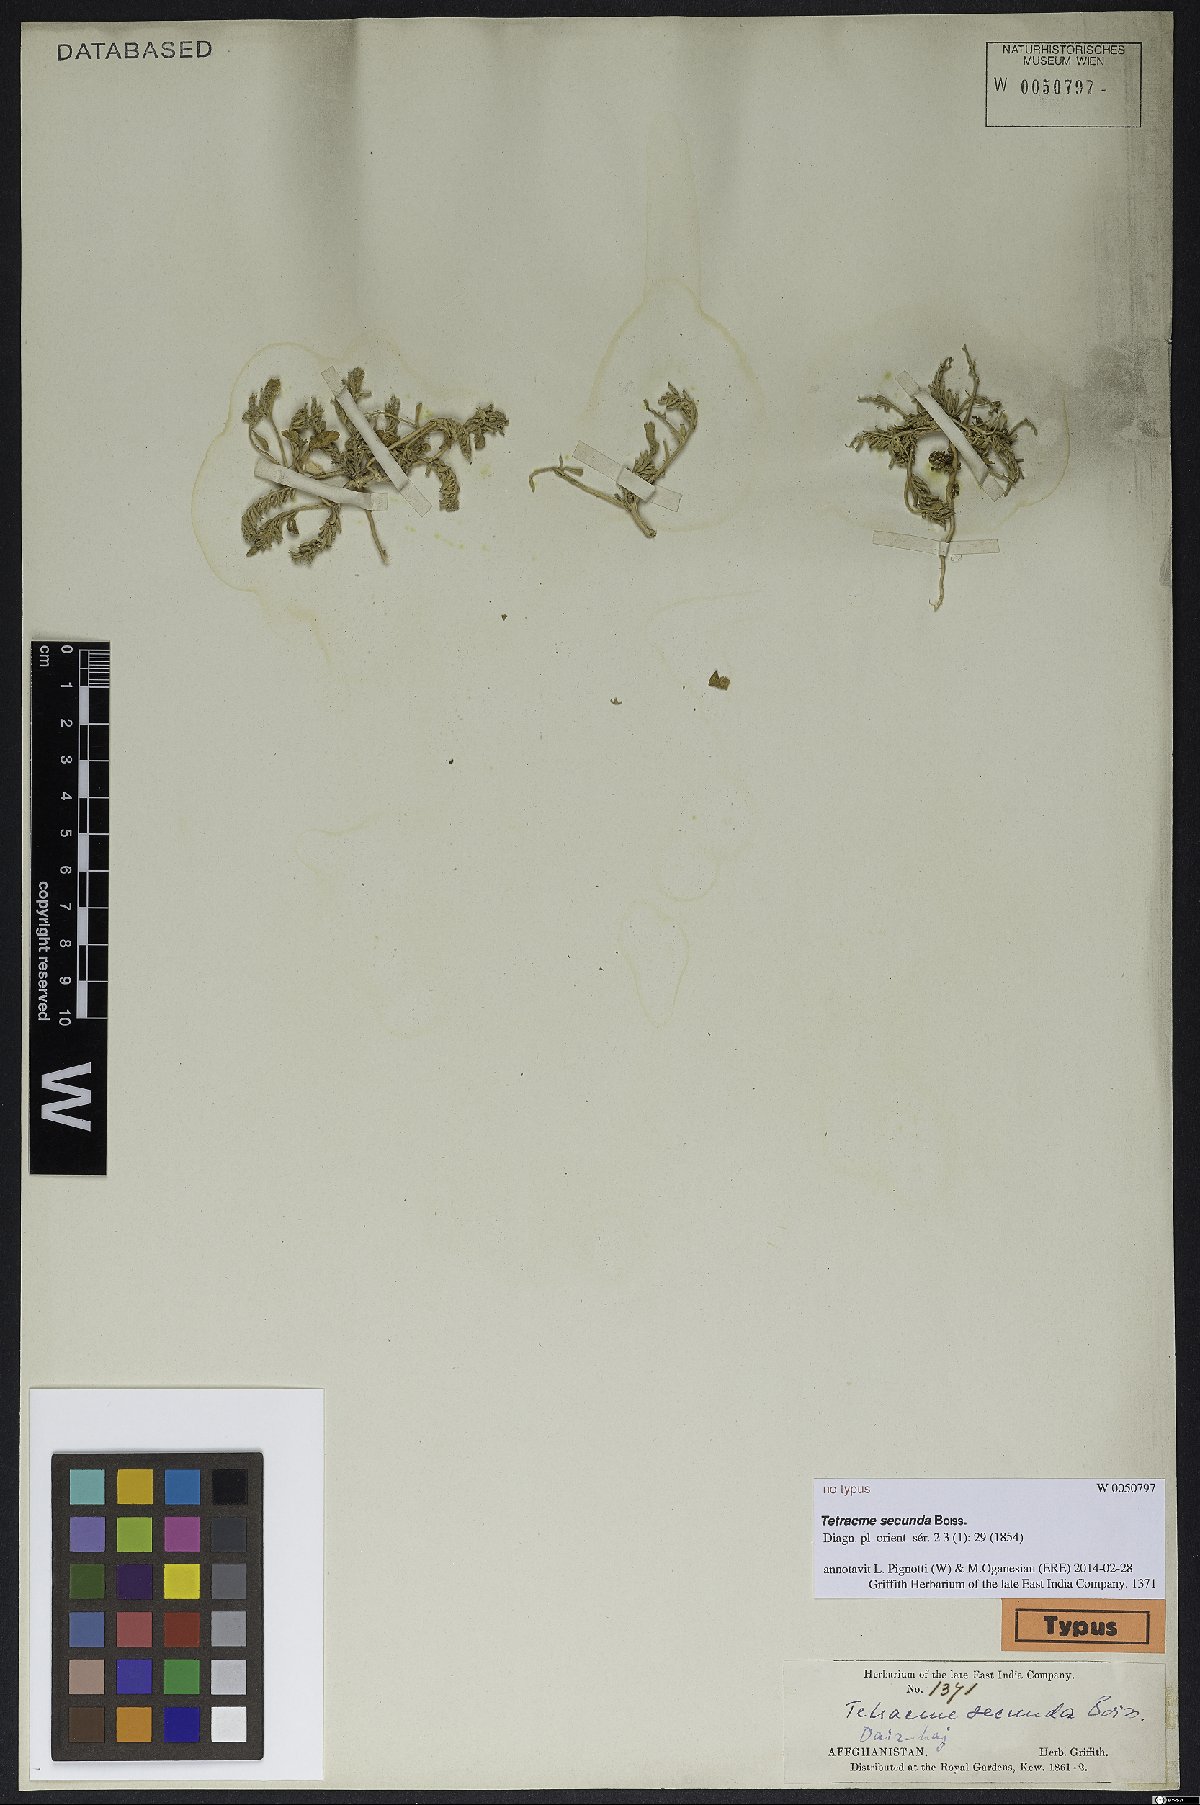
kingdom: Plantae
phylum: Tracheophyta
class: Magnoliopsida
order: Brassicales
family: Brassicaceae
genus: Tetracme
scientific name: Tetracme secunda
